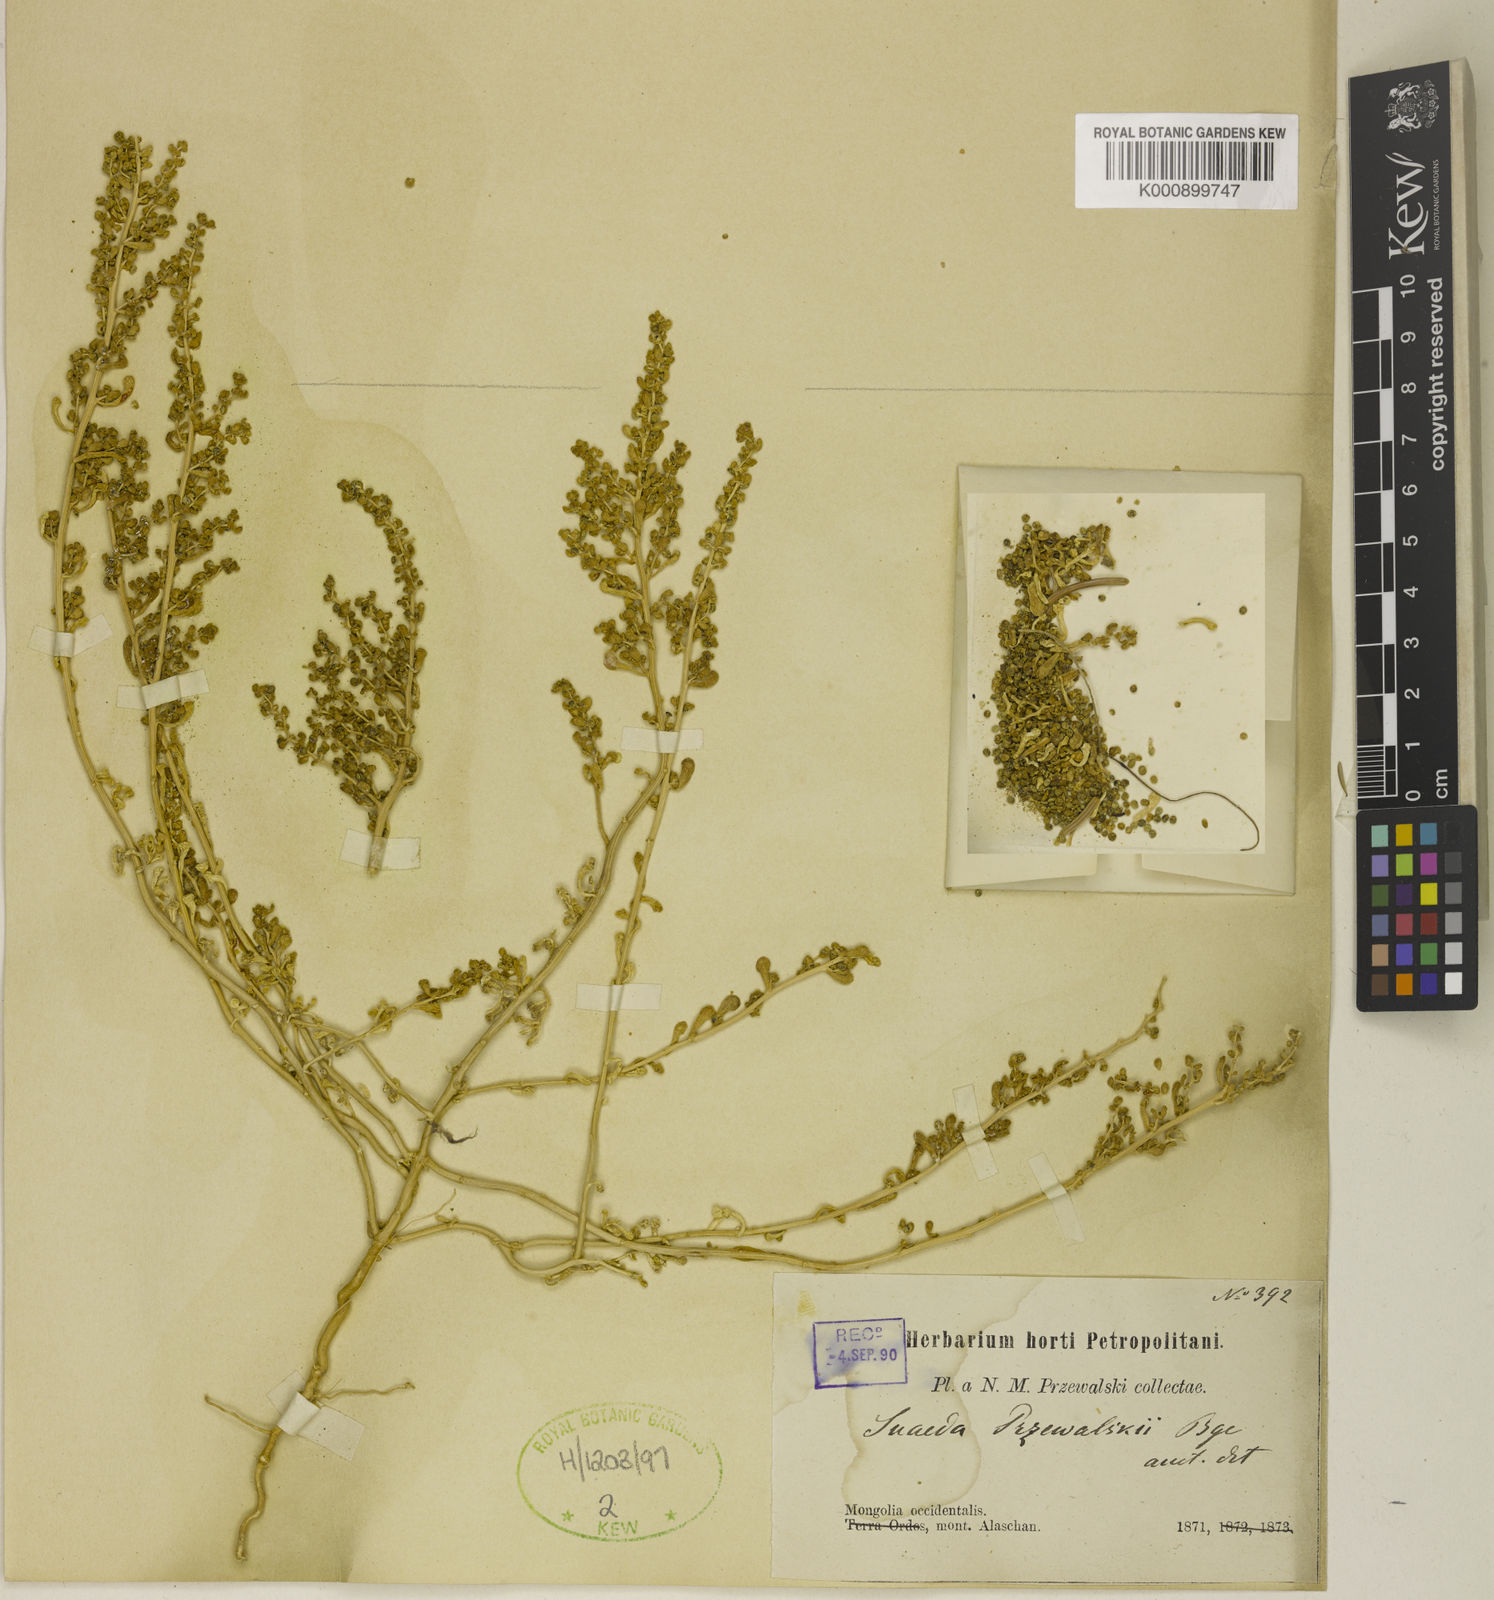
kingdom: Plantae
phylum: Tracheophyta
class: Magnoliopsida
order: Caryophyllales
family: Amaranthaceae
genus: Suaeda
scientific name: Suaeda przewalskii
